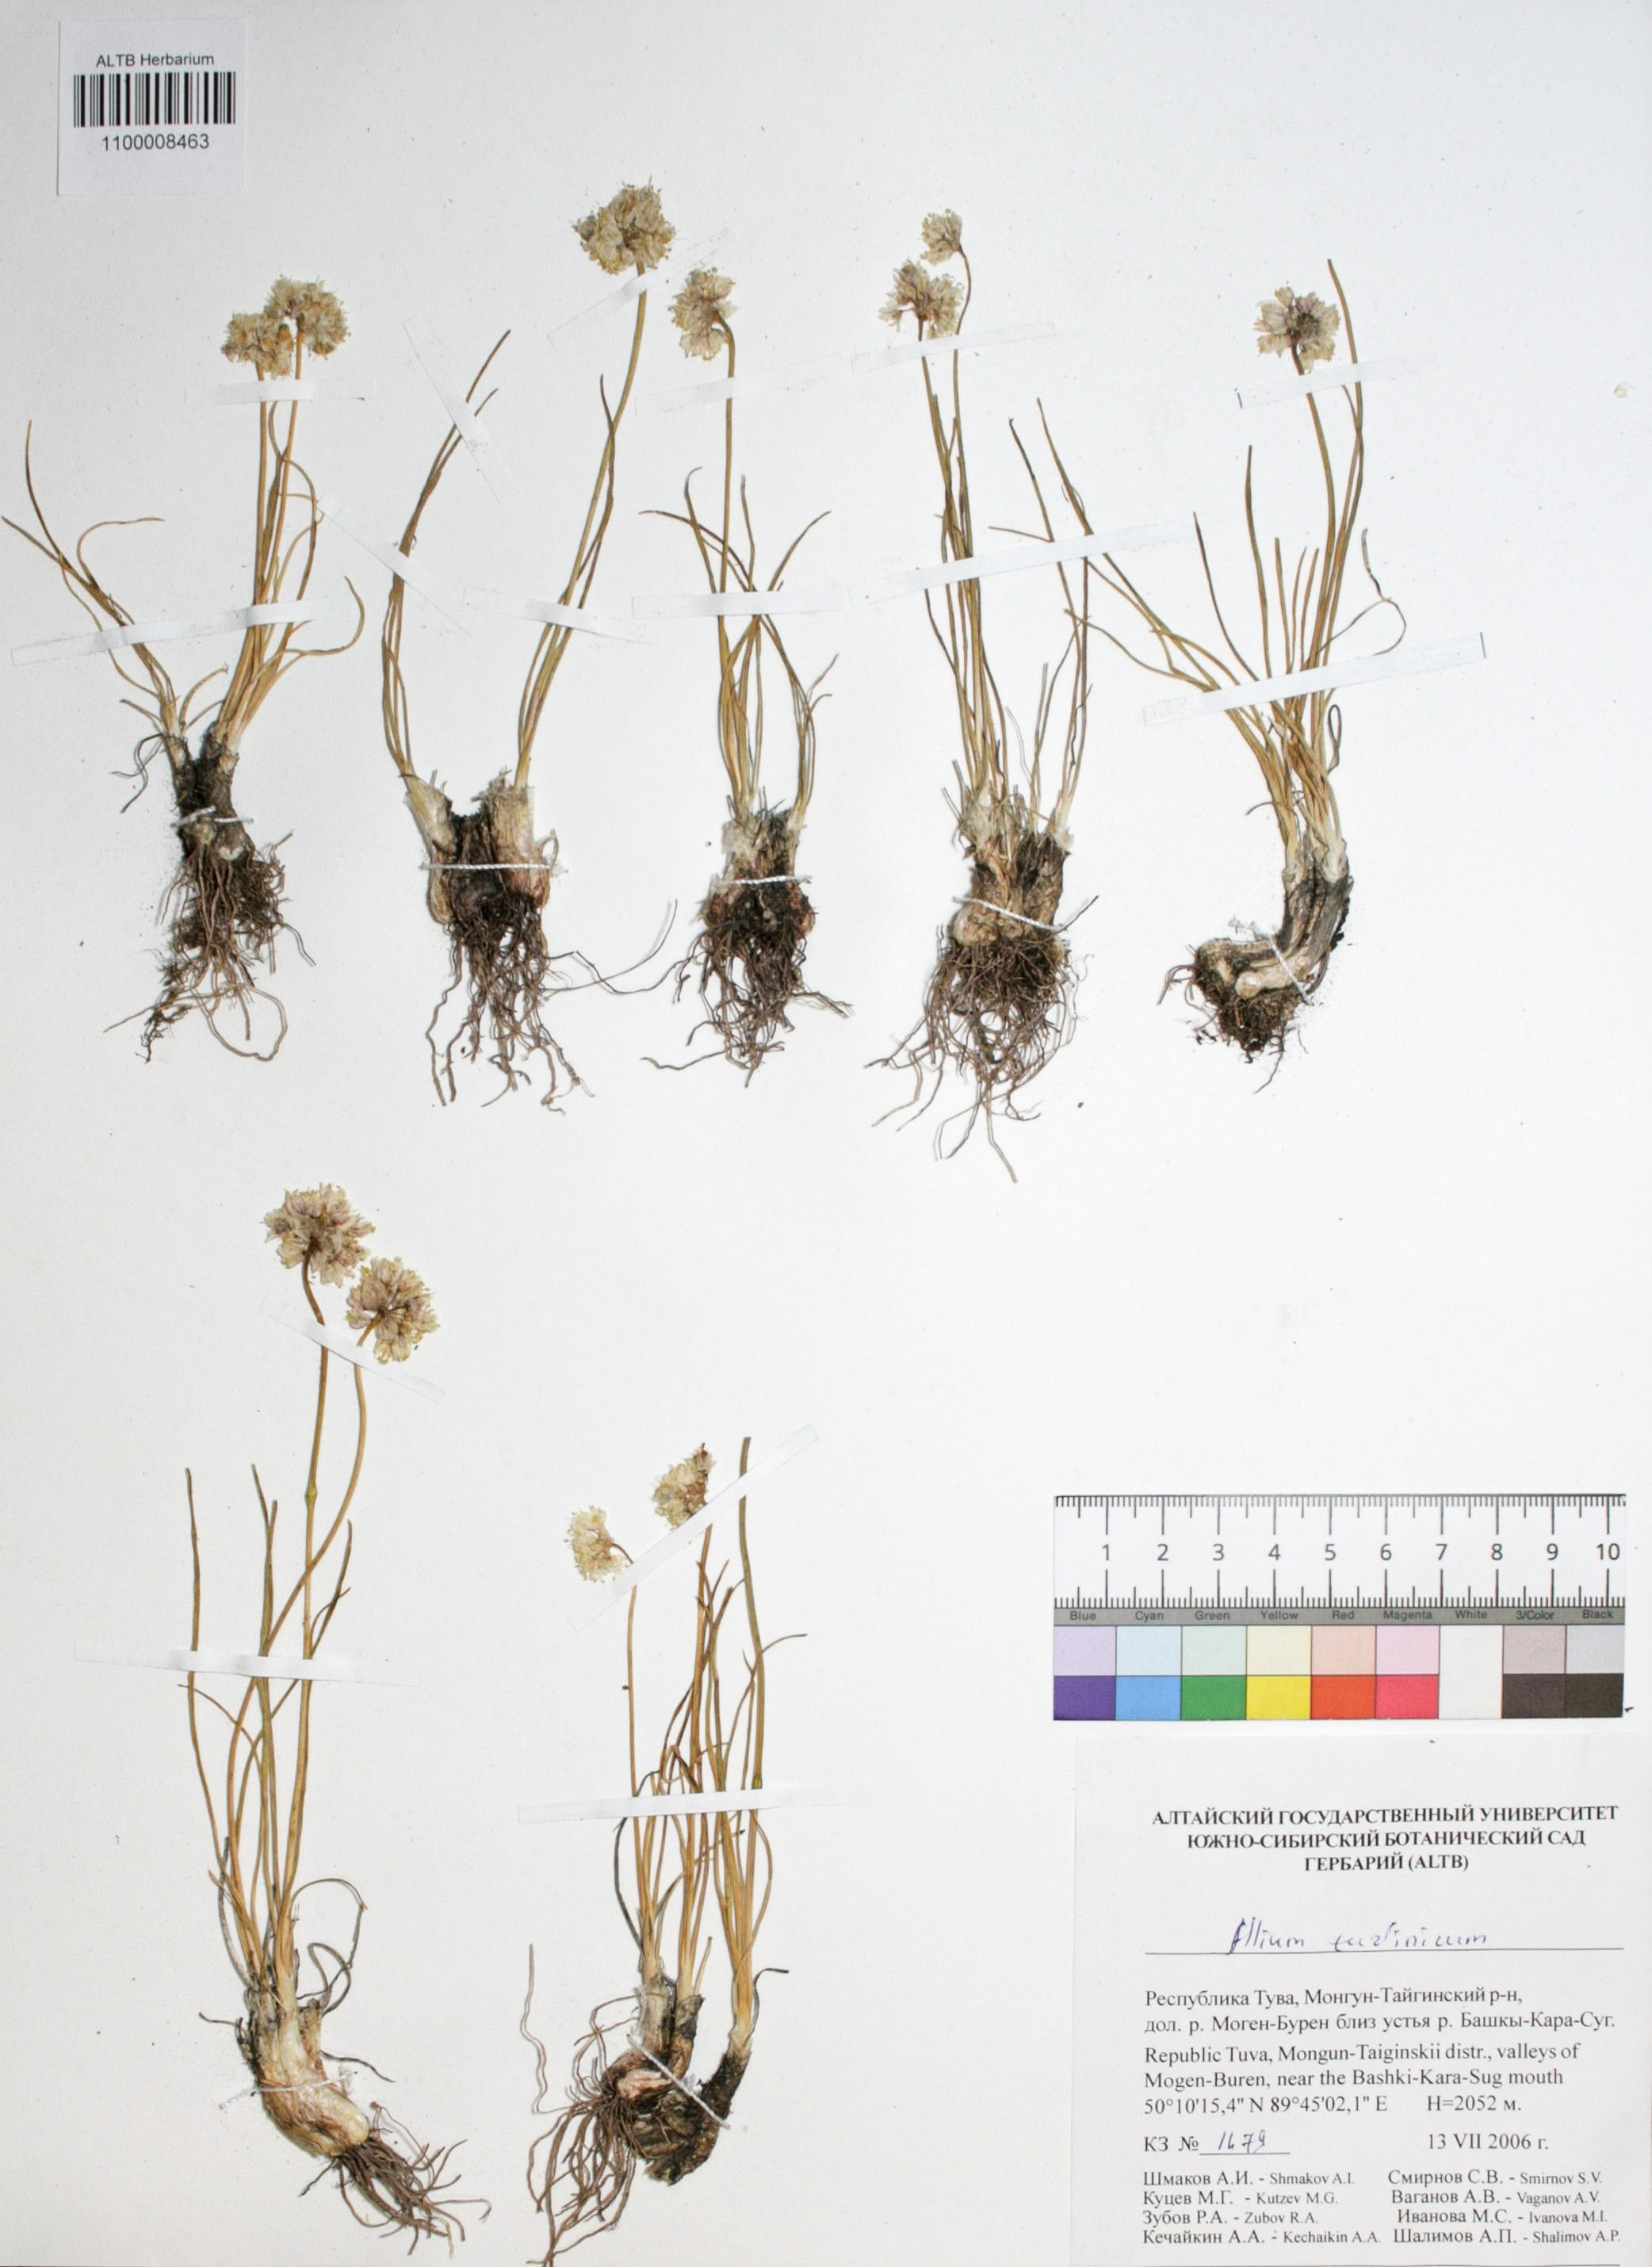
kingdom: Plantae
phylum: Tracheophyta
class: Liliopsida
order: Asparagales
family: Amaryllidaceae
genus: Allium
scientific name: Allium tuvinicum
